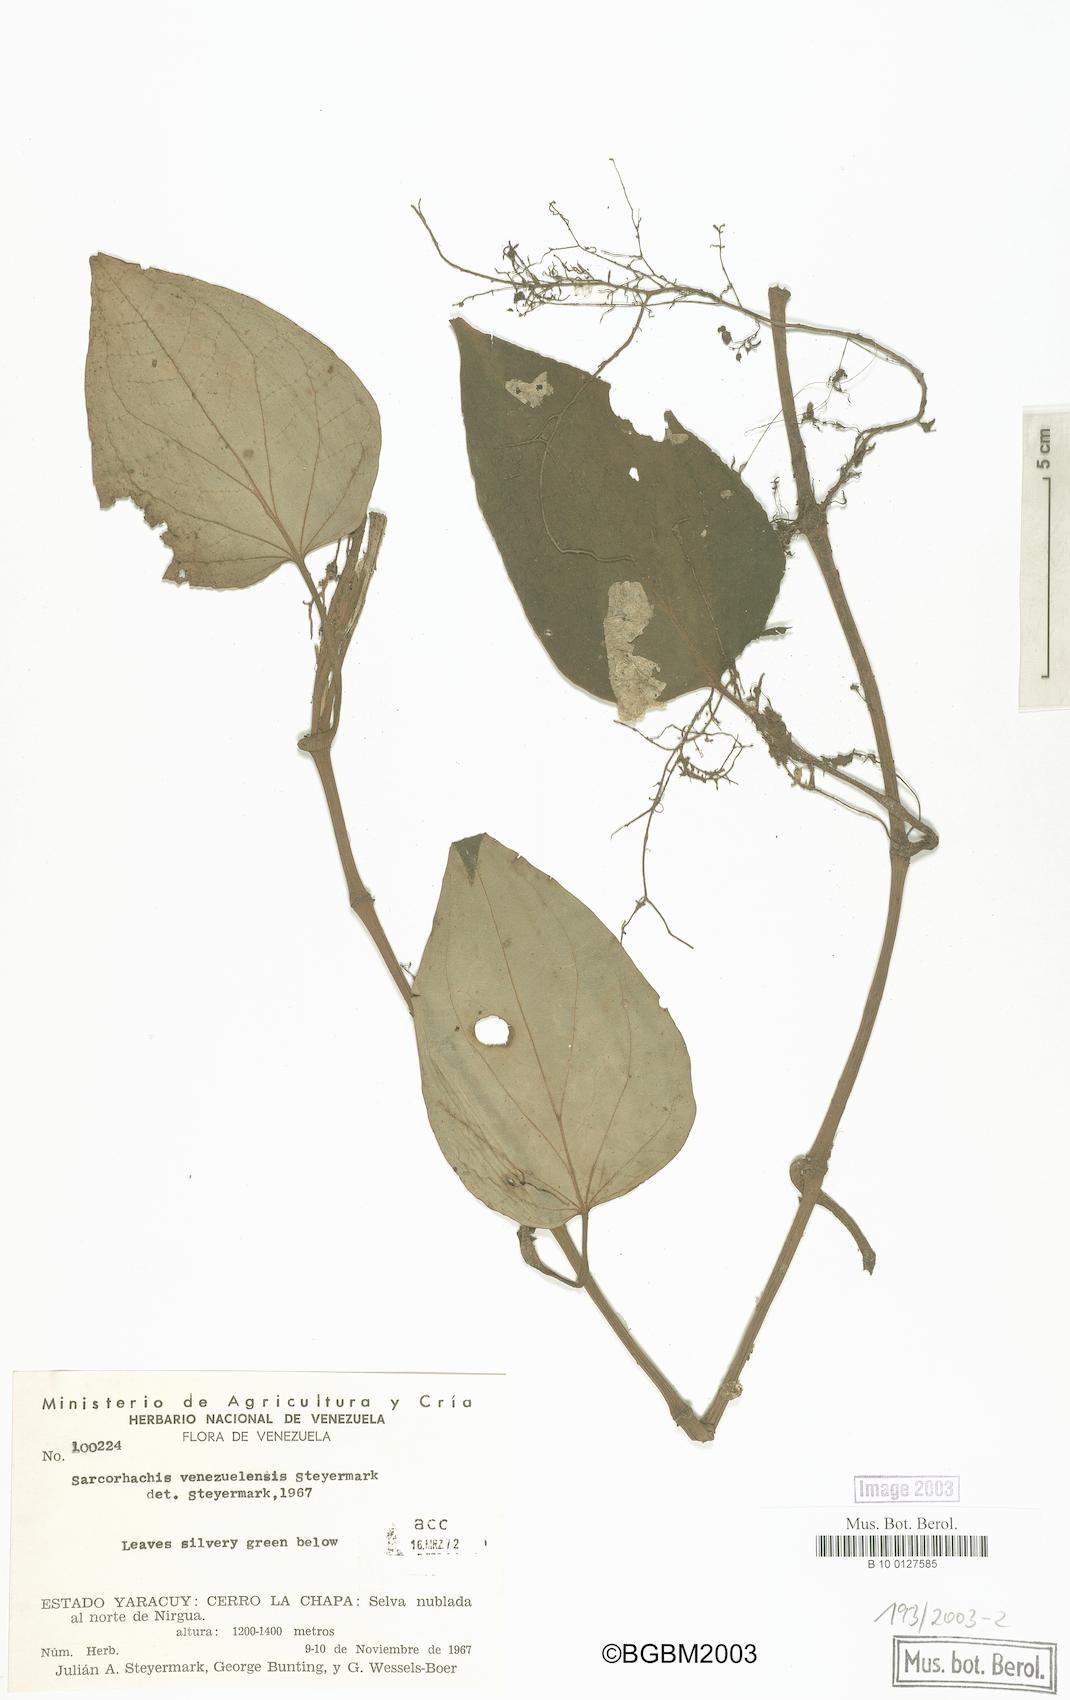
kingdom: Plantae
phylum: Tracheophyta
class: Magnoliopsida
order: Piperales
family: Piperaceae
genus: Manekia
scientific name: Manekia
